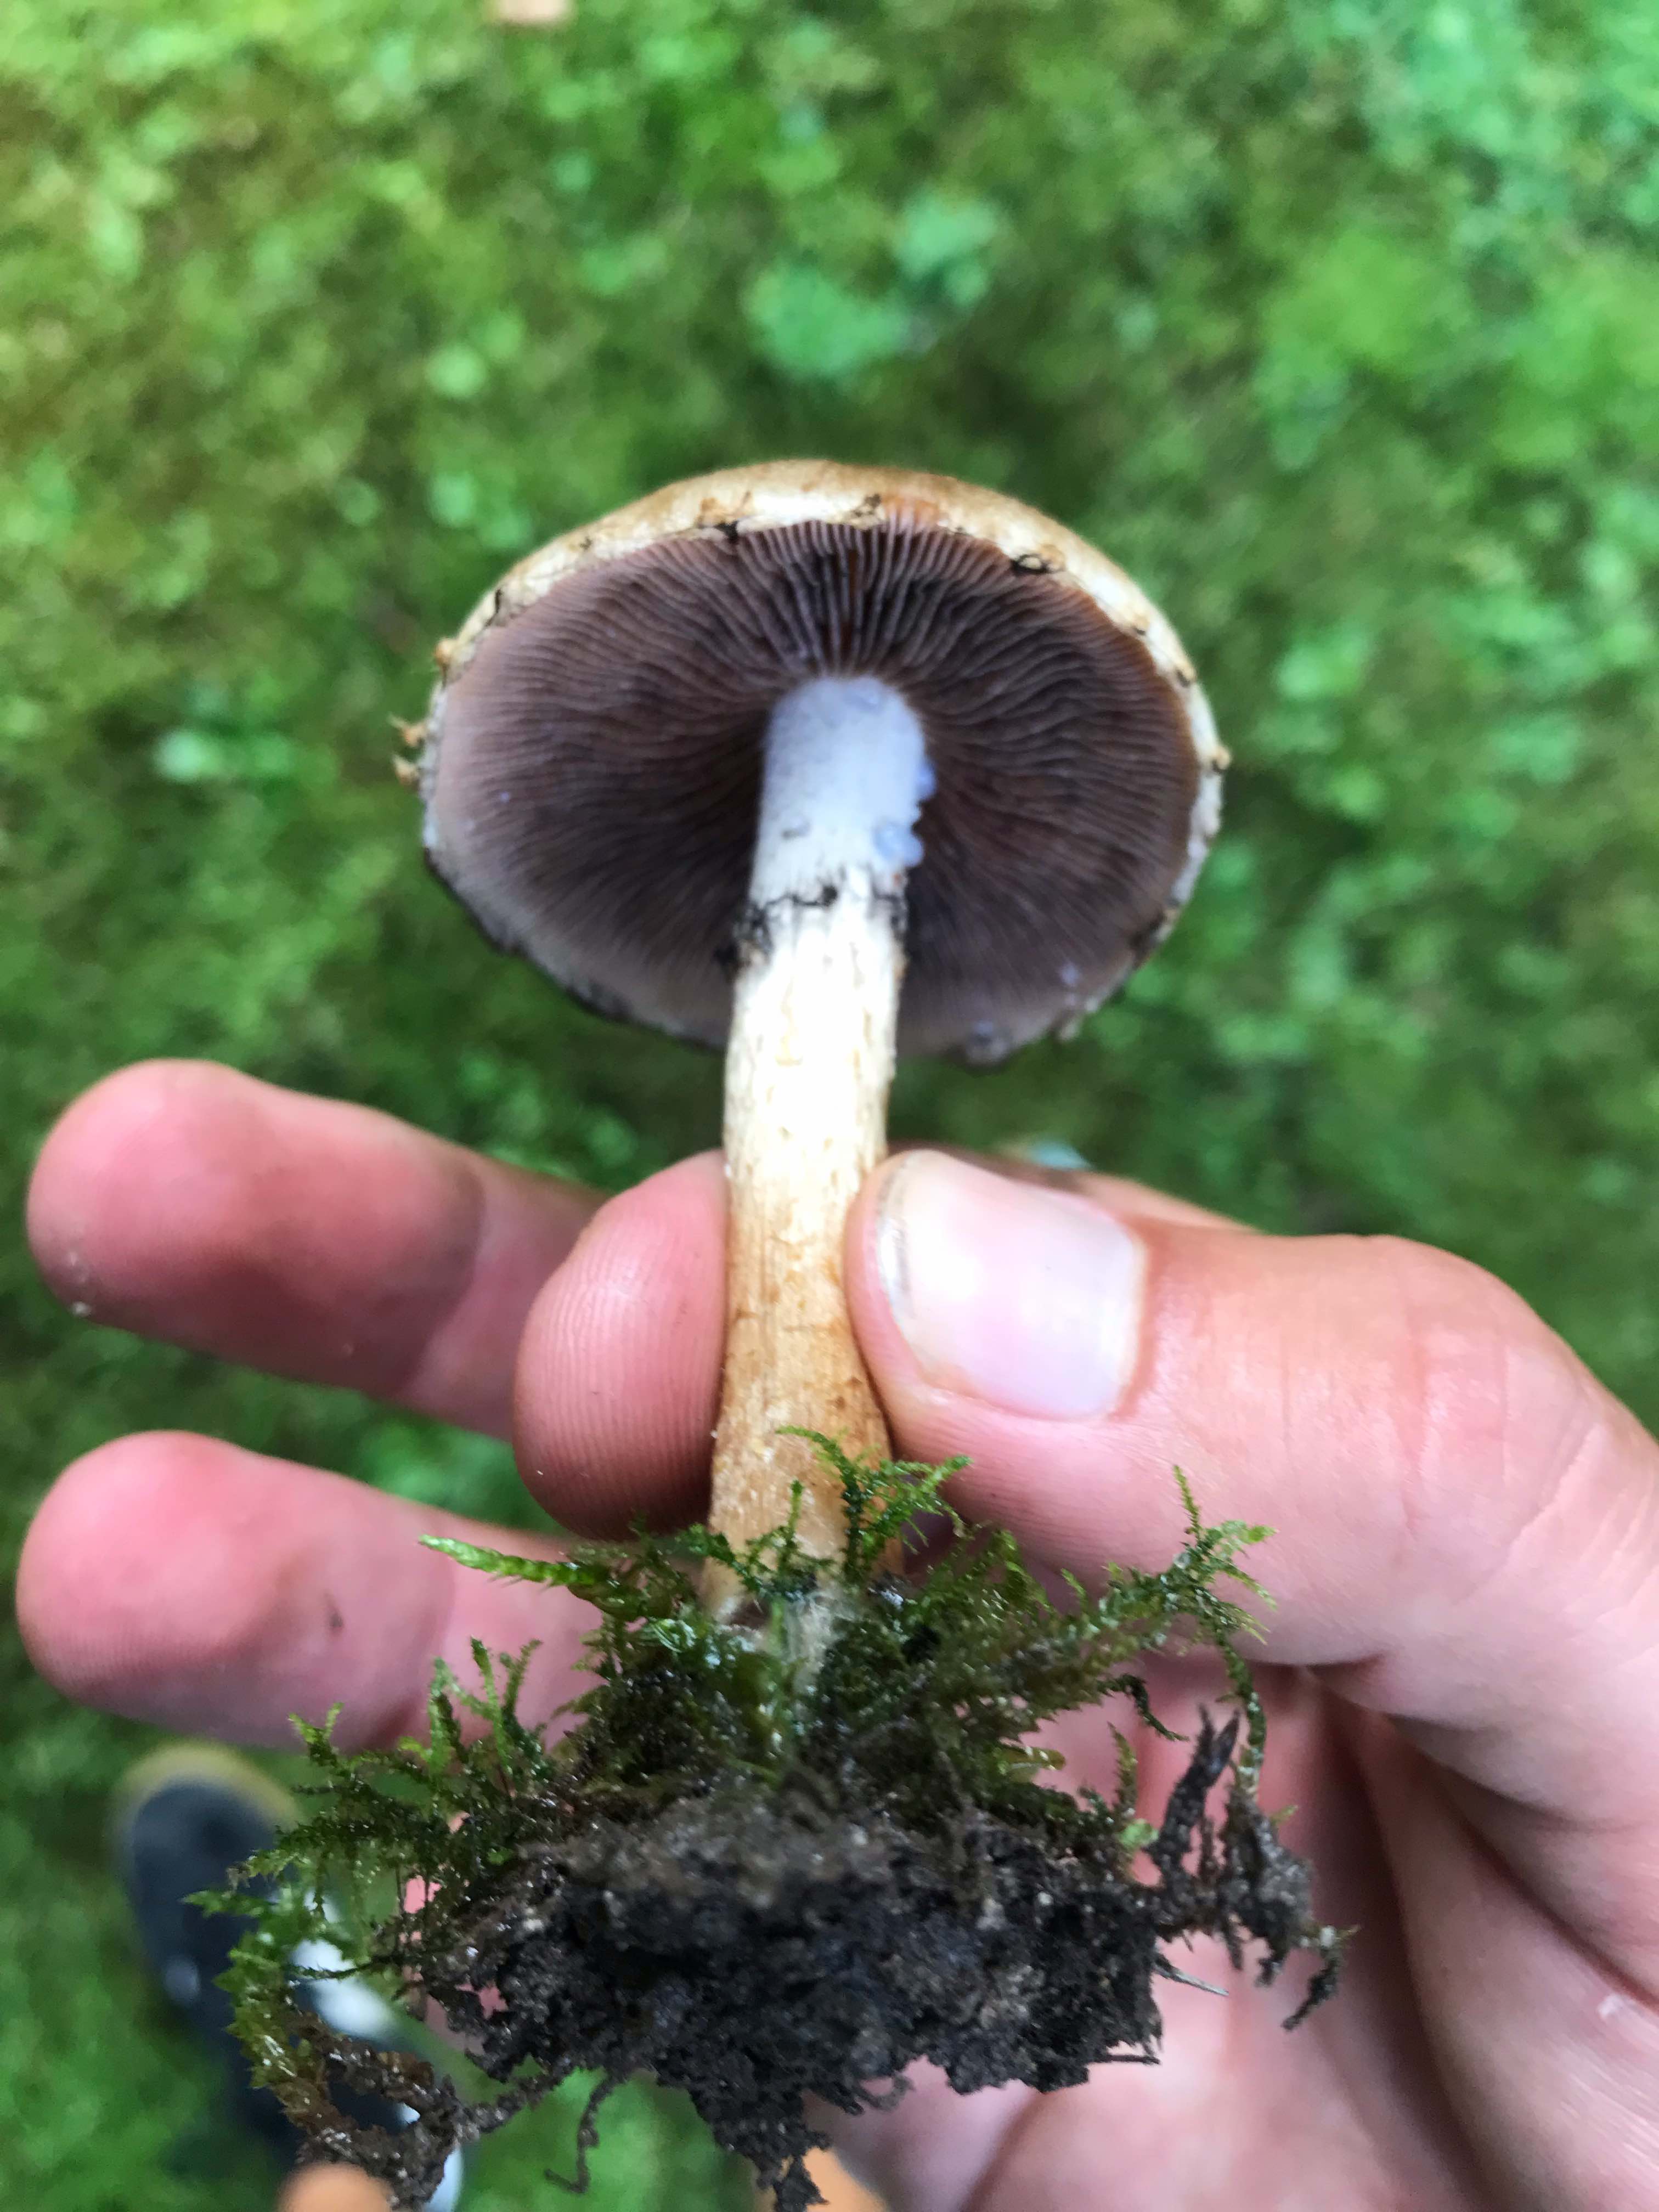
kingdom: Fungi
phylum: Basidiomycota
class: Agaricomycetes
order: Agaricales
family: Psathyrellaceae
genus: Lacrymaria
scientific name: Lacrymaria lacrymabunda
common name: grædende mørkhat
